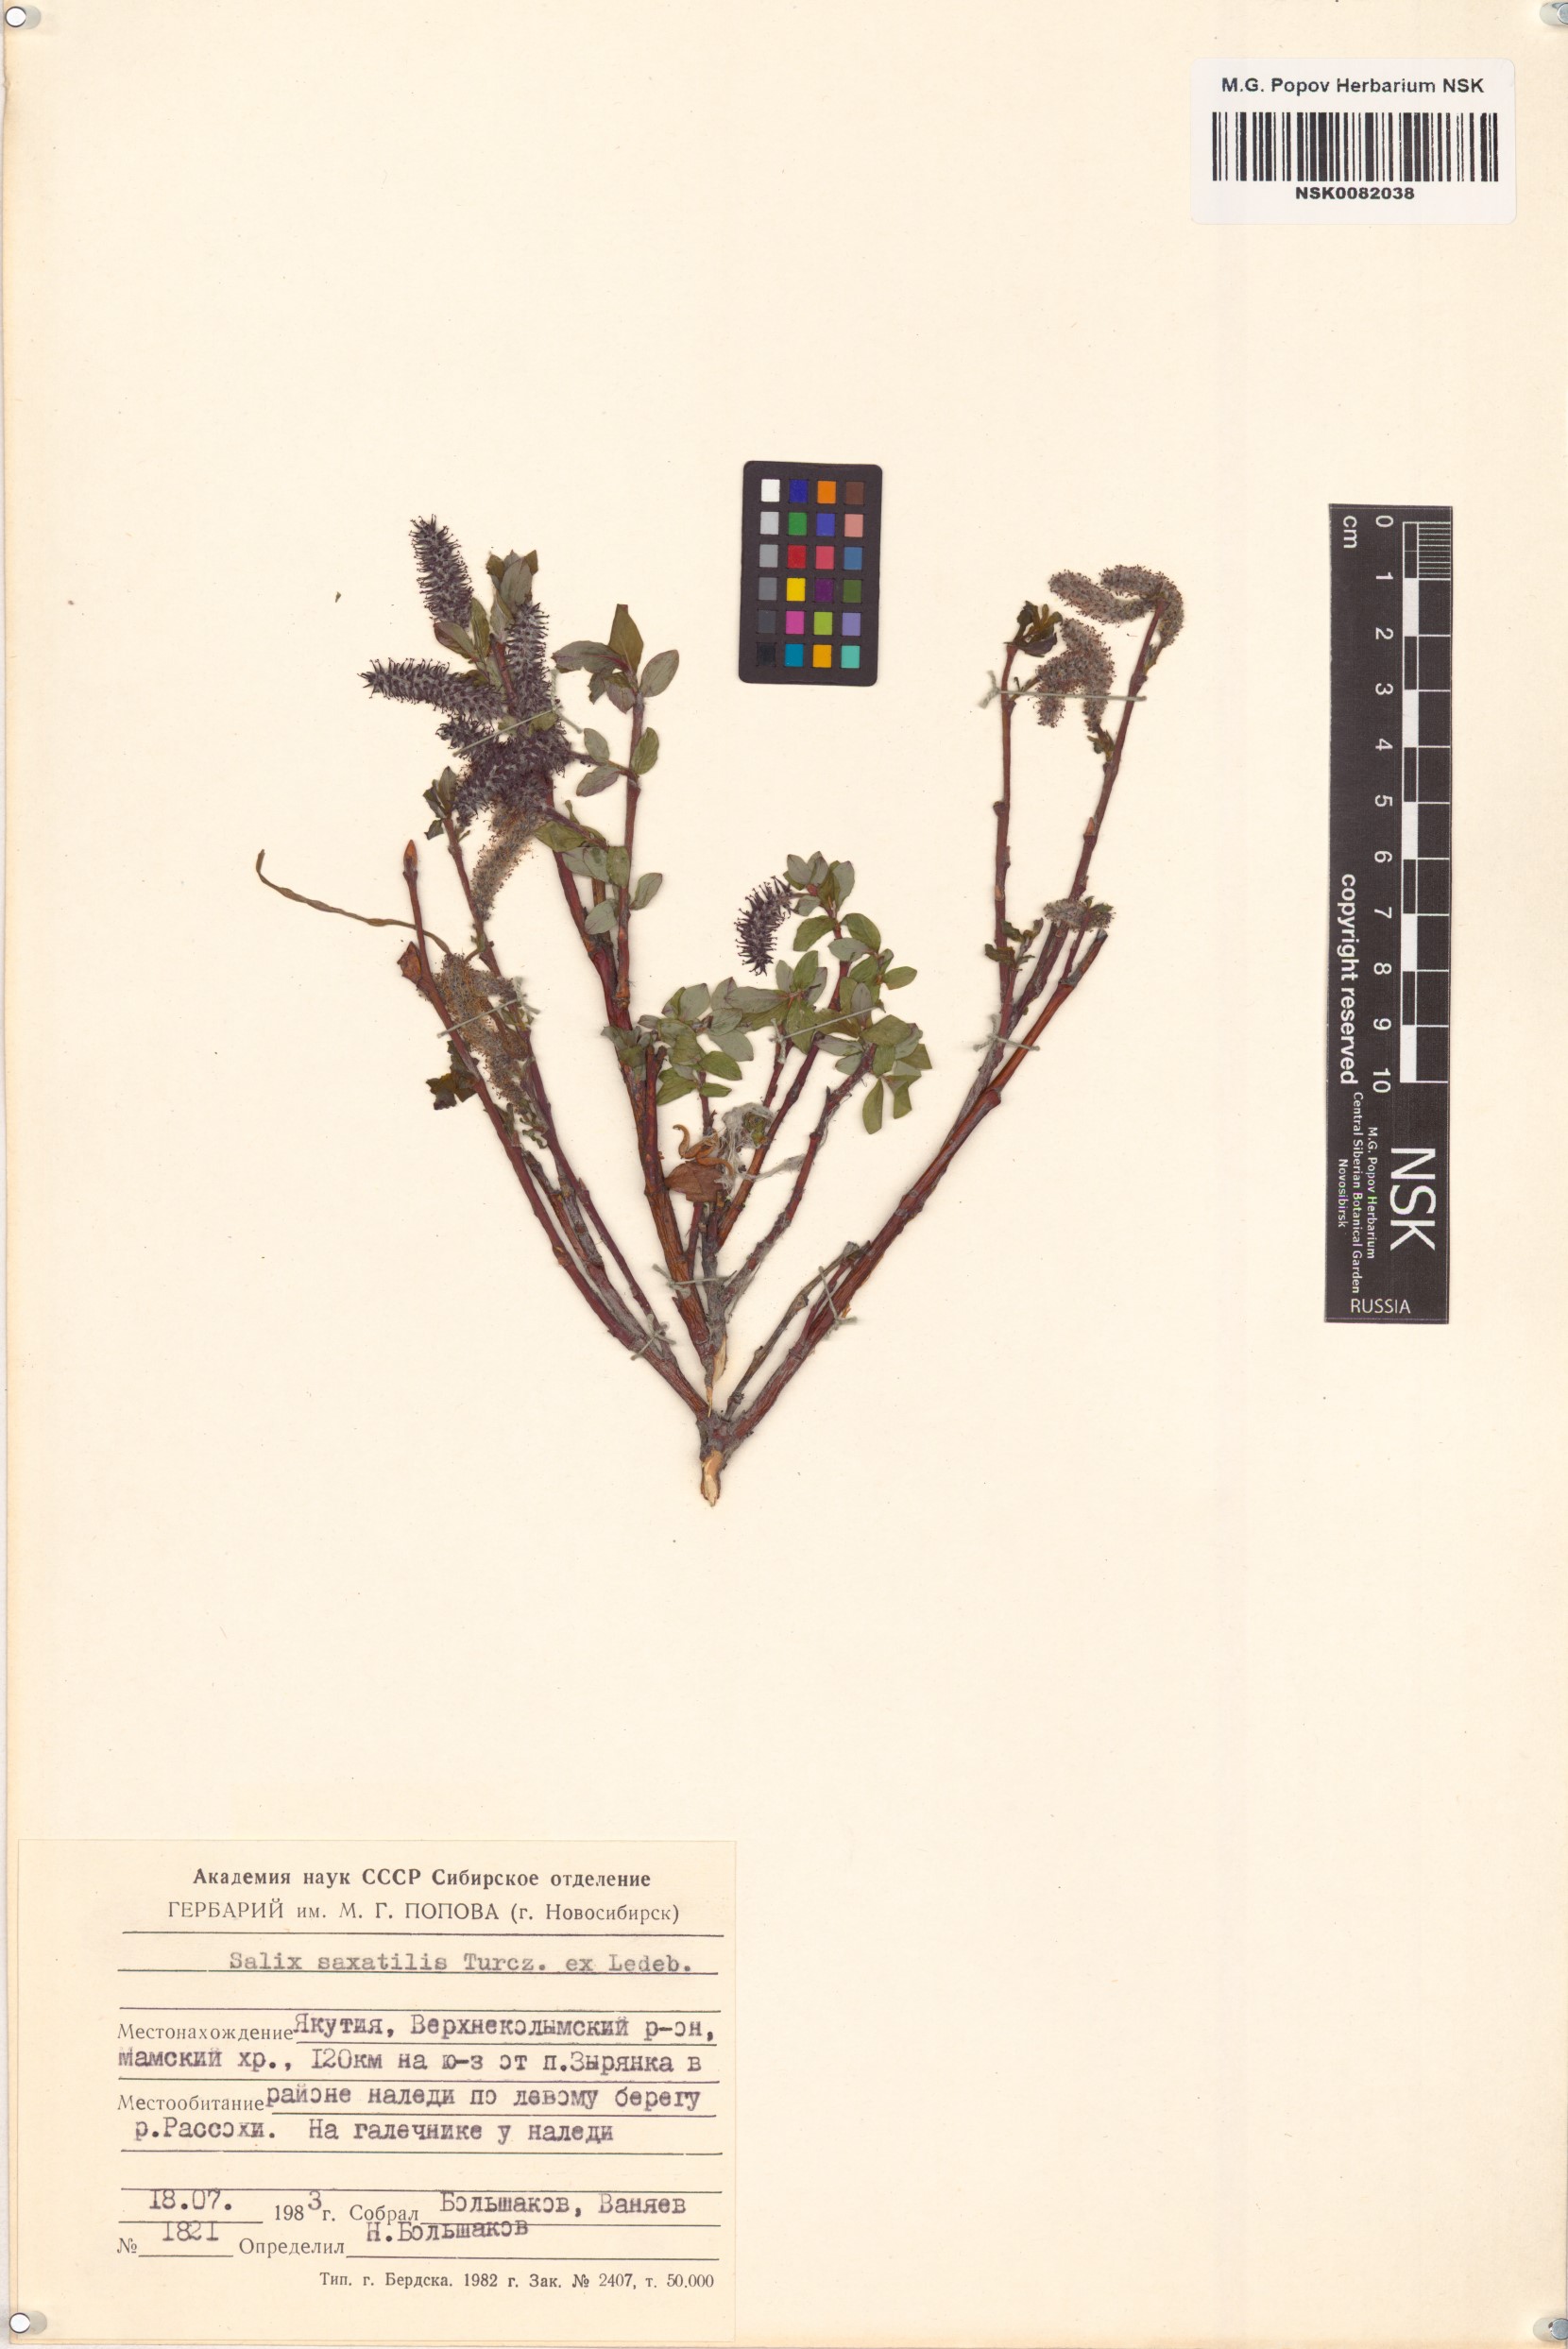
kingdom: Plantae
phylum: Tracheophyta
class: Magnoliopsida
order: Malpighiales
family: Salicaceae
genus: Salix
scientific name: Salix saxatilis
